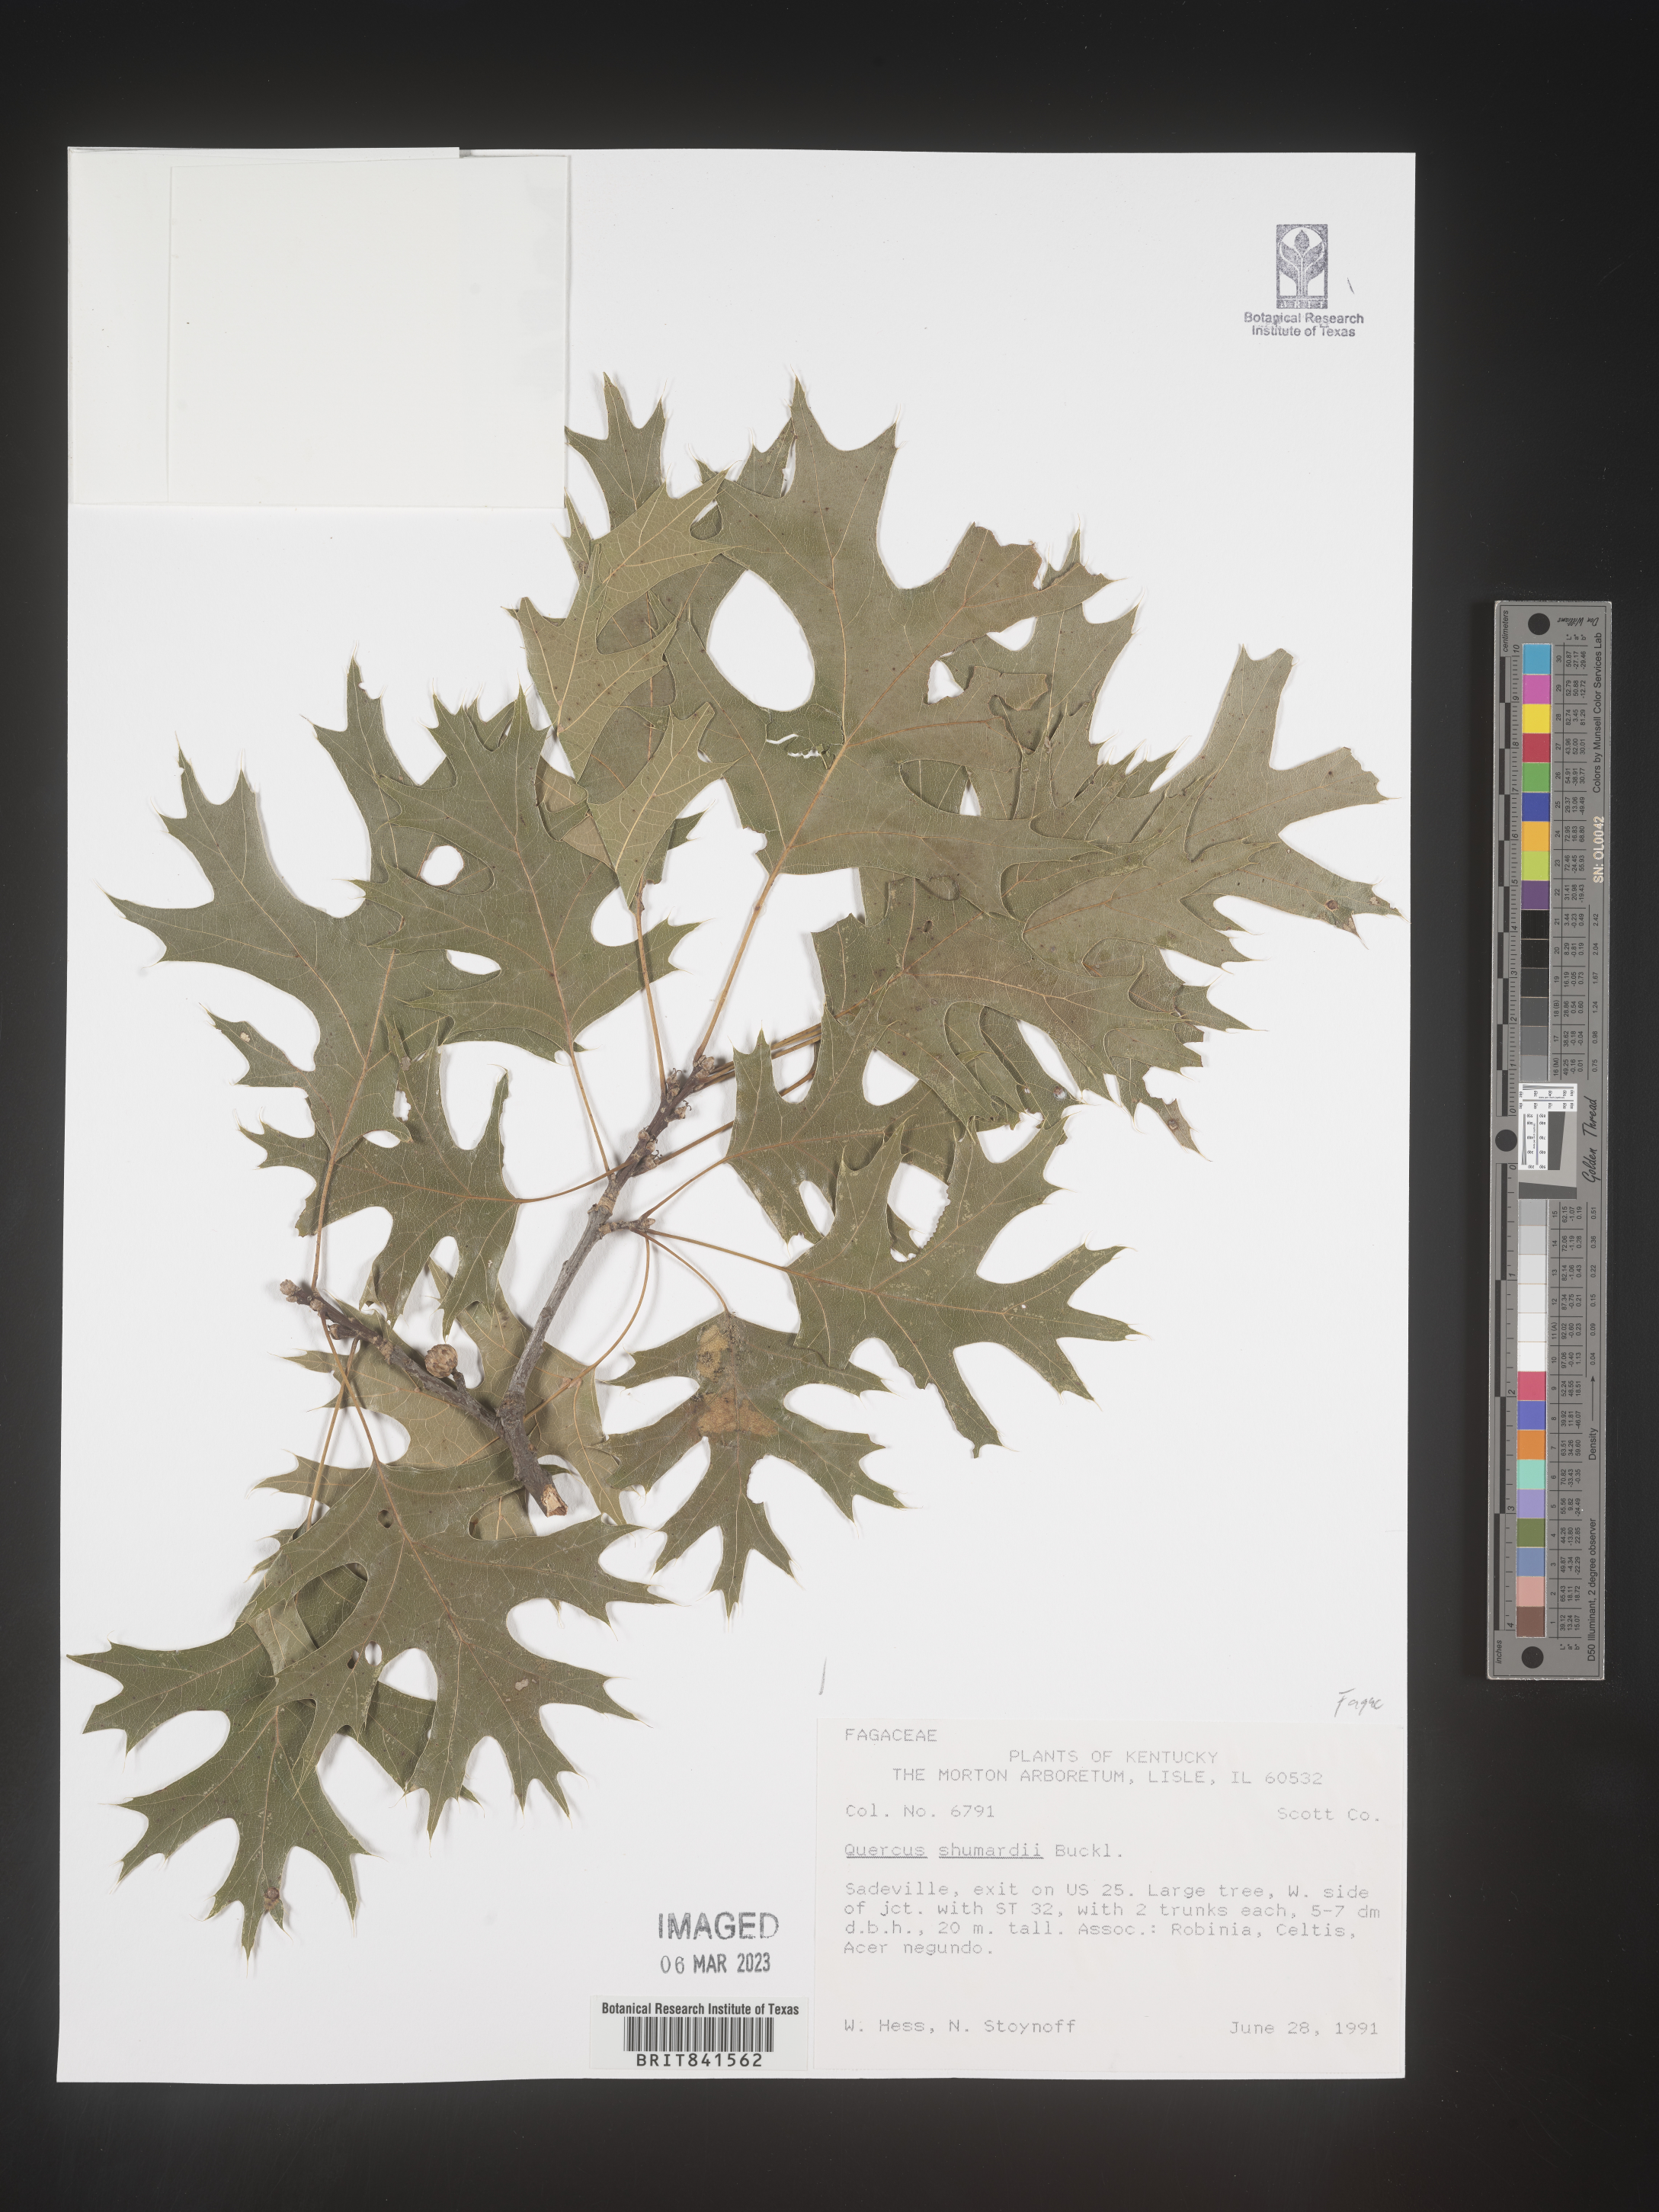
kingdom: Plantae
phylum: Tracheophyta
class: Magnoliopsida
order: Fagales
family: Fagaceae
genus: Quercus
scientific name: Quercus shumardii
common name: Shumard oak
